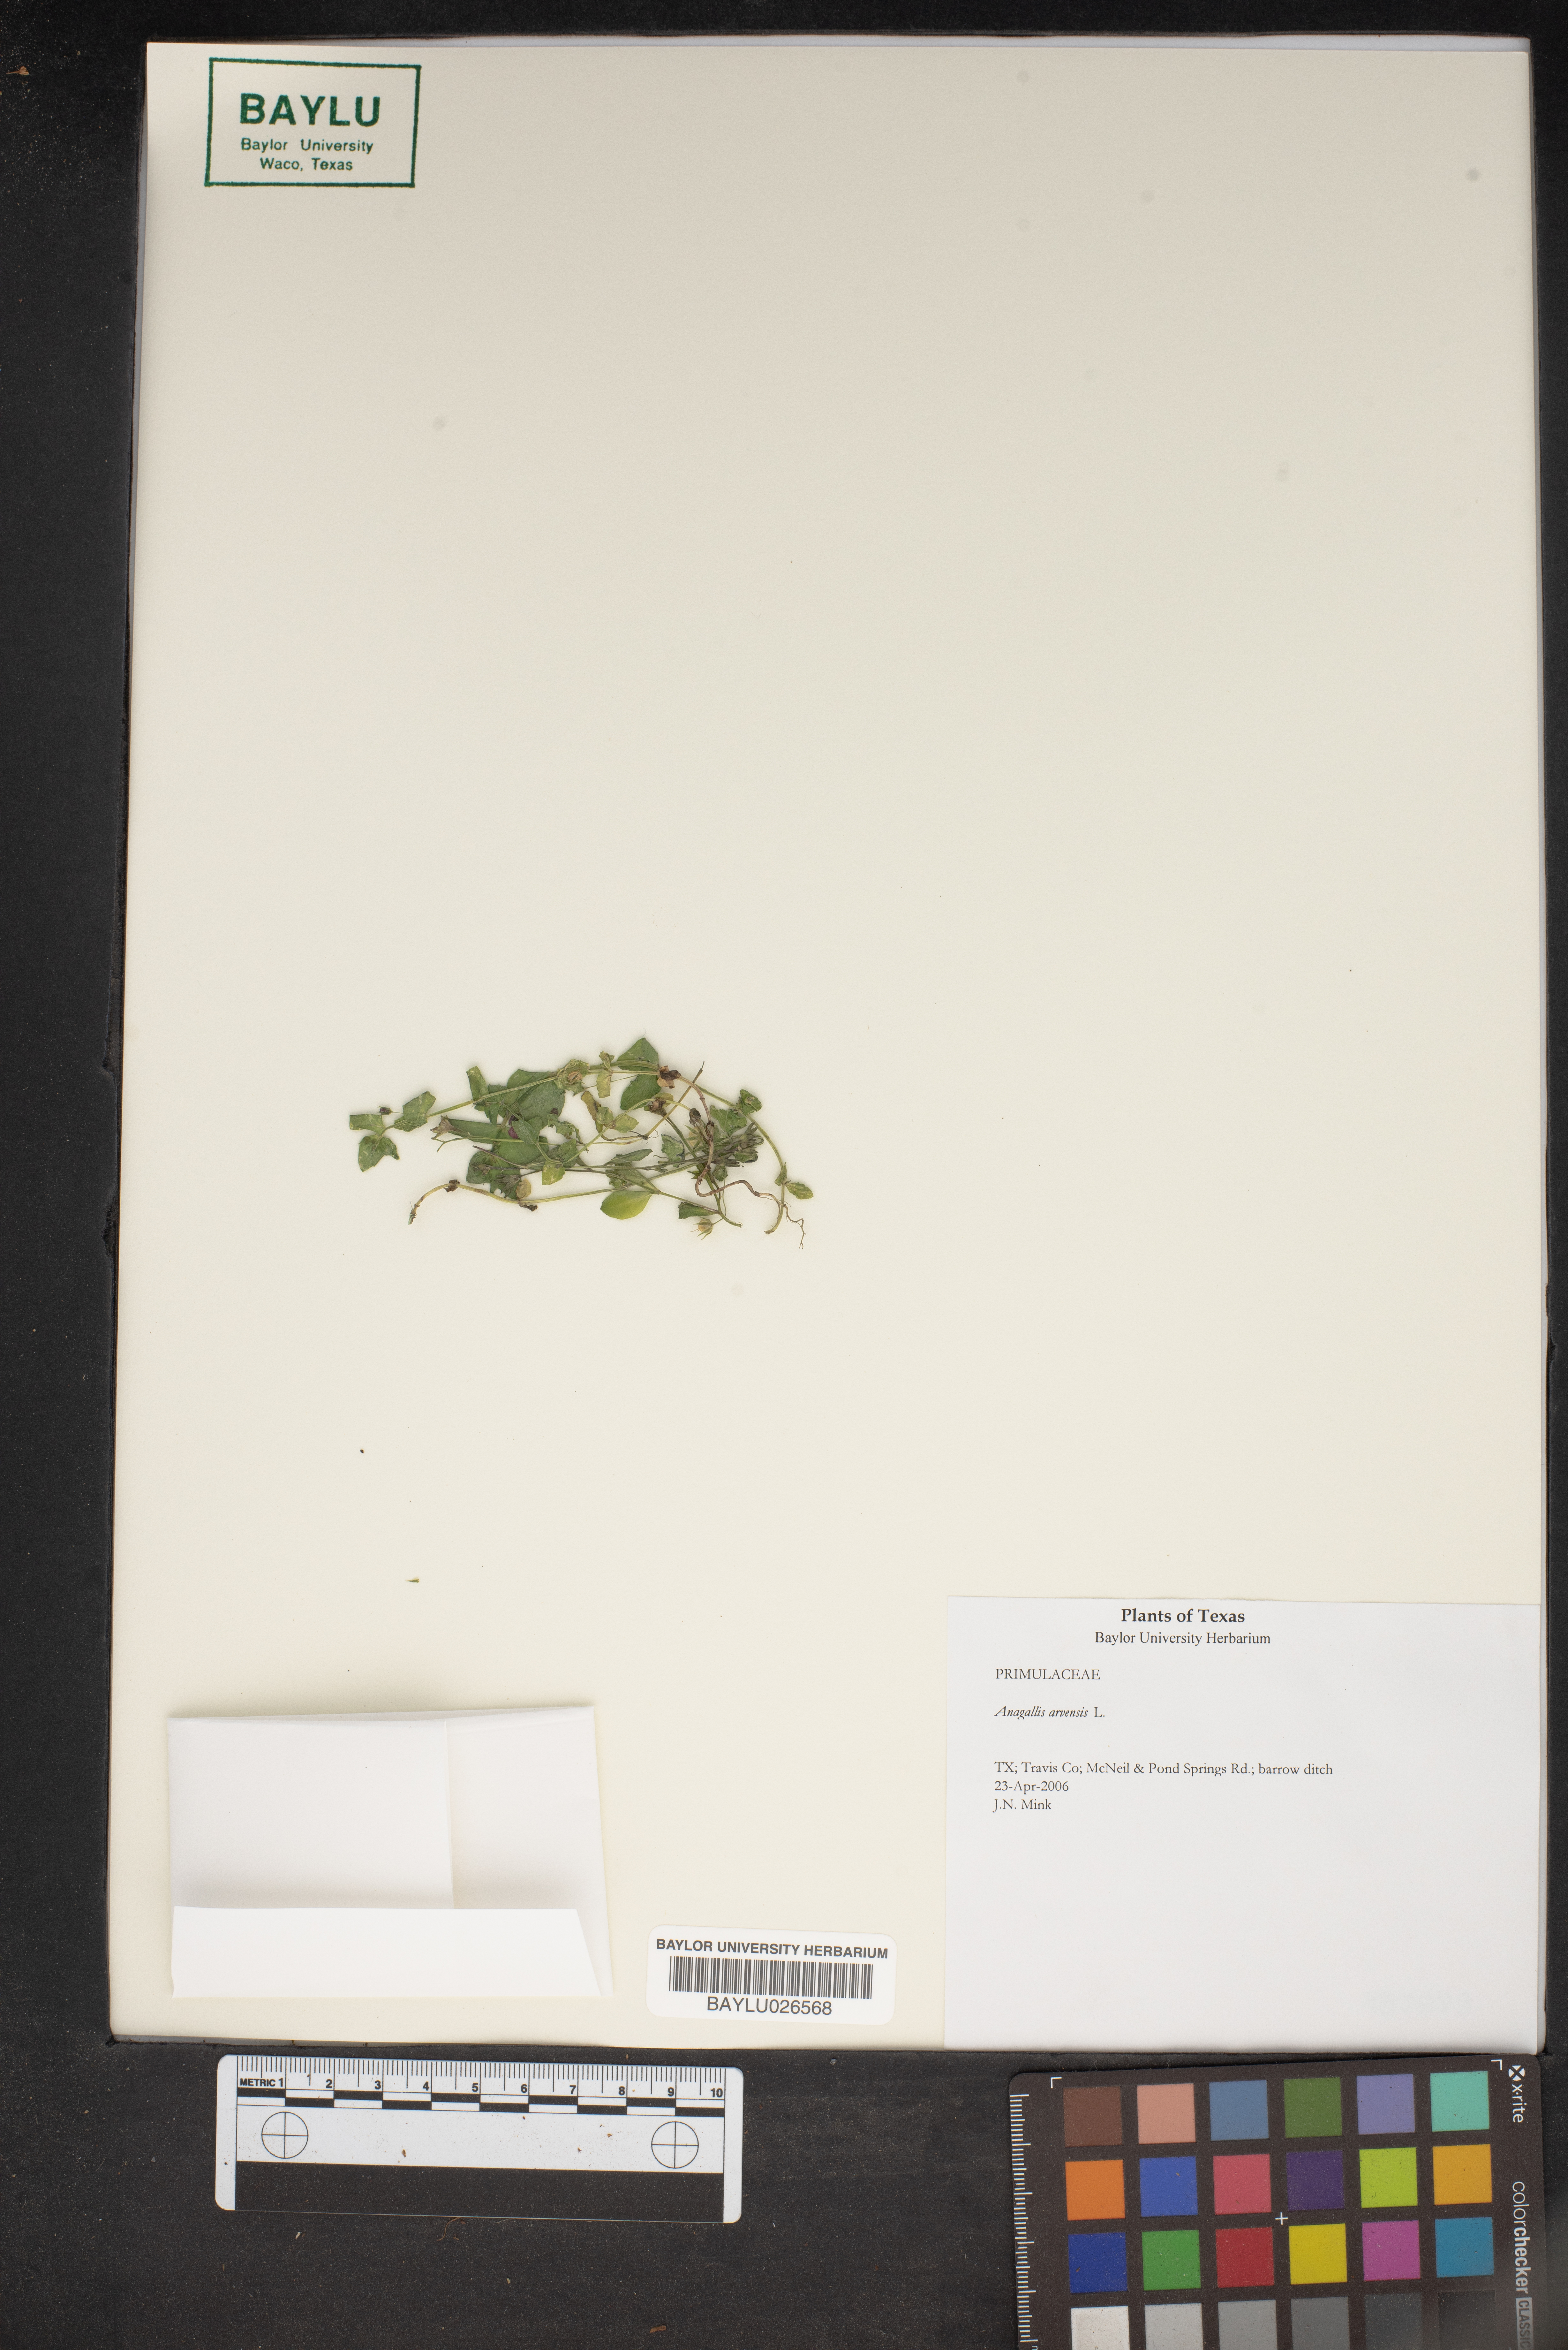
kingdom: Plantae
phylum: Tracheophyta
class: Magnoliopsida
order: Ericales
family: Primulaceae
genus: Lysimachia
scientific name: Lysimachia arvensis
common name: Scarlet pimpernel
